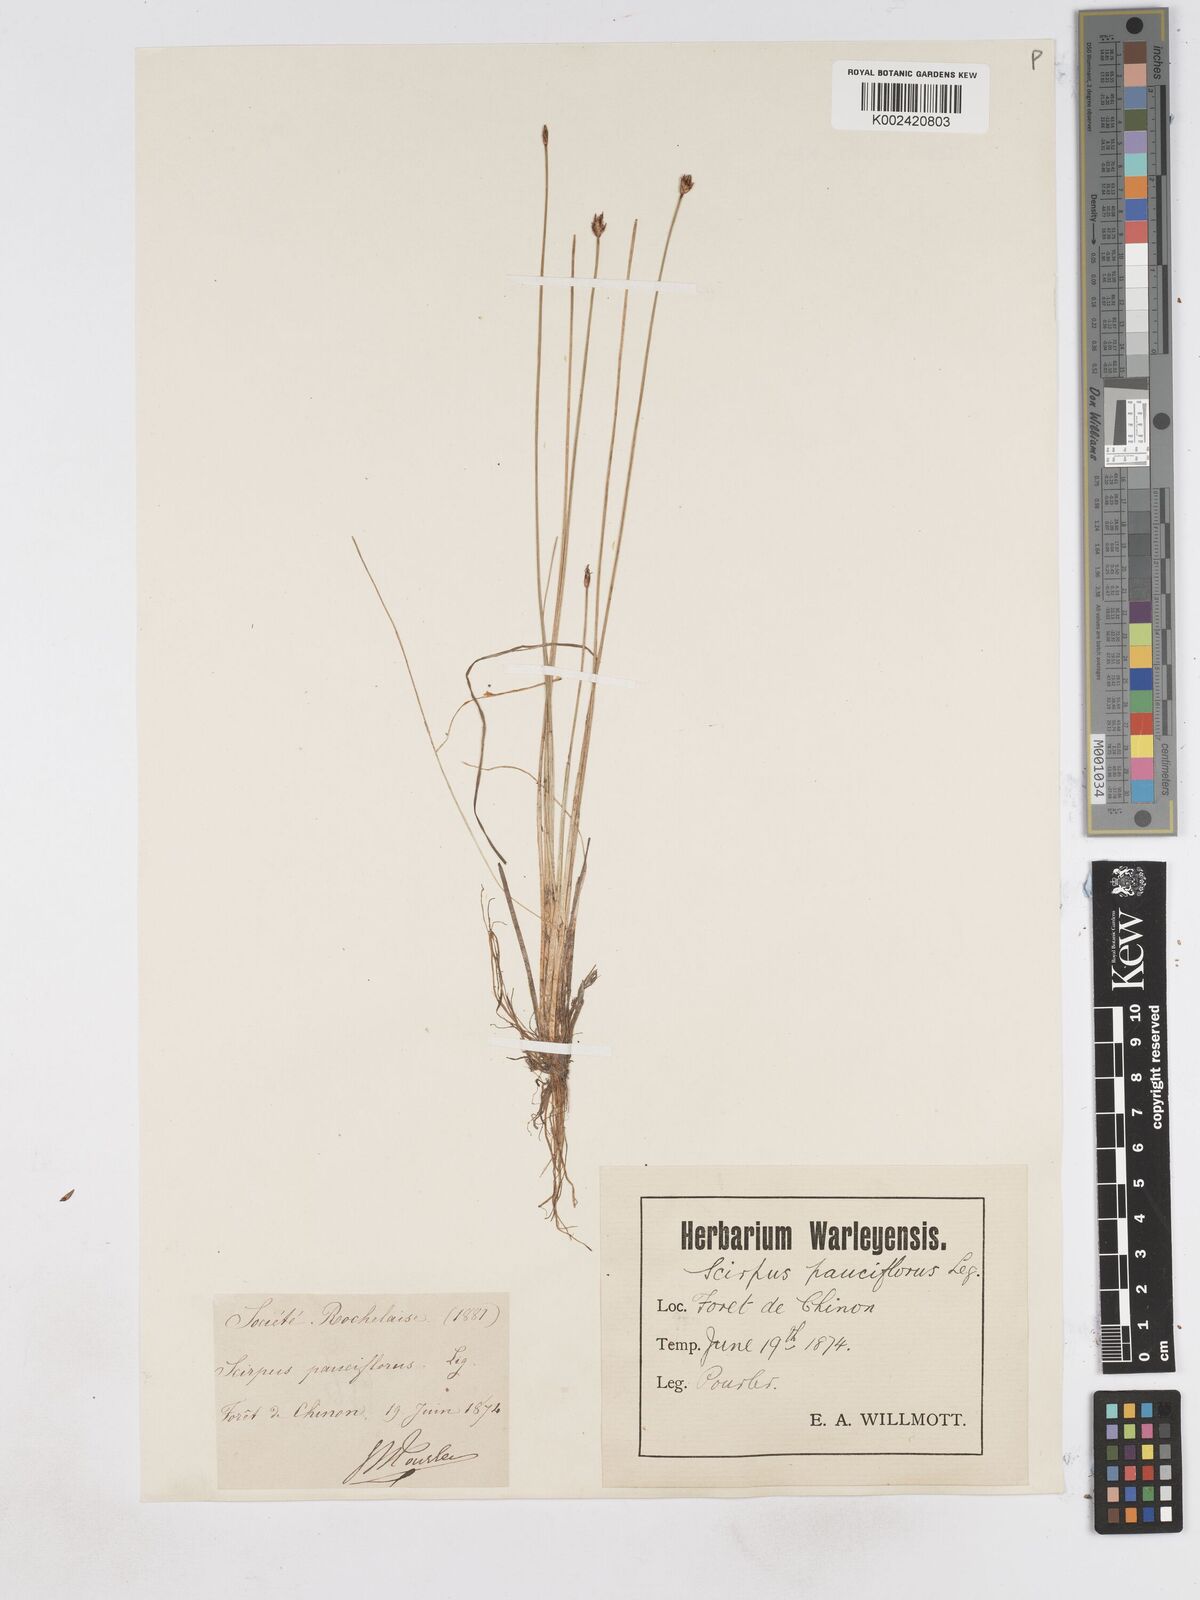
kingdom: Plantae
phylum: Tracheophyta
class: Liliopsida
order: Poales
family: Cyperaceae
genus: Eleocharis
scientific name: Eleocharis quinqueflora
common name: Few-flowered spike-rush
